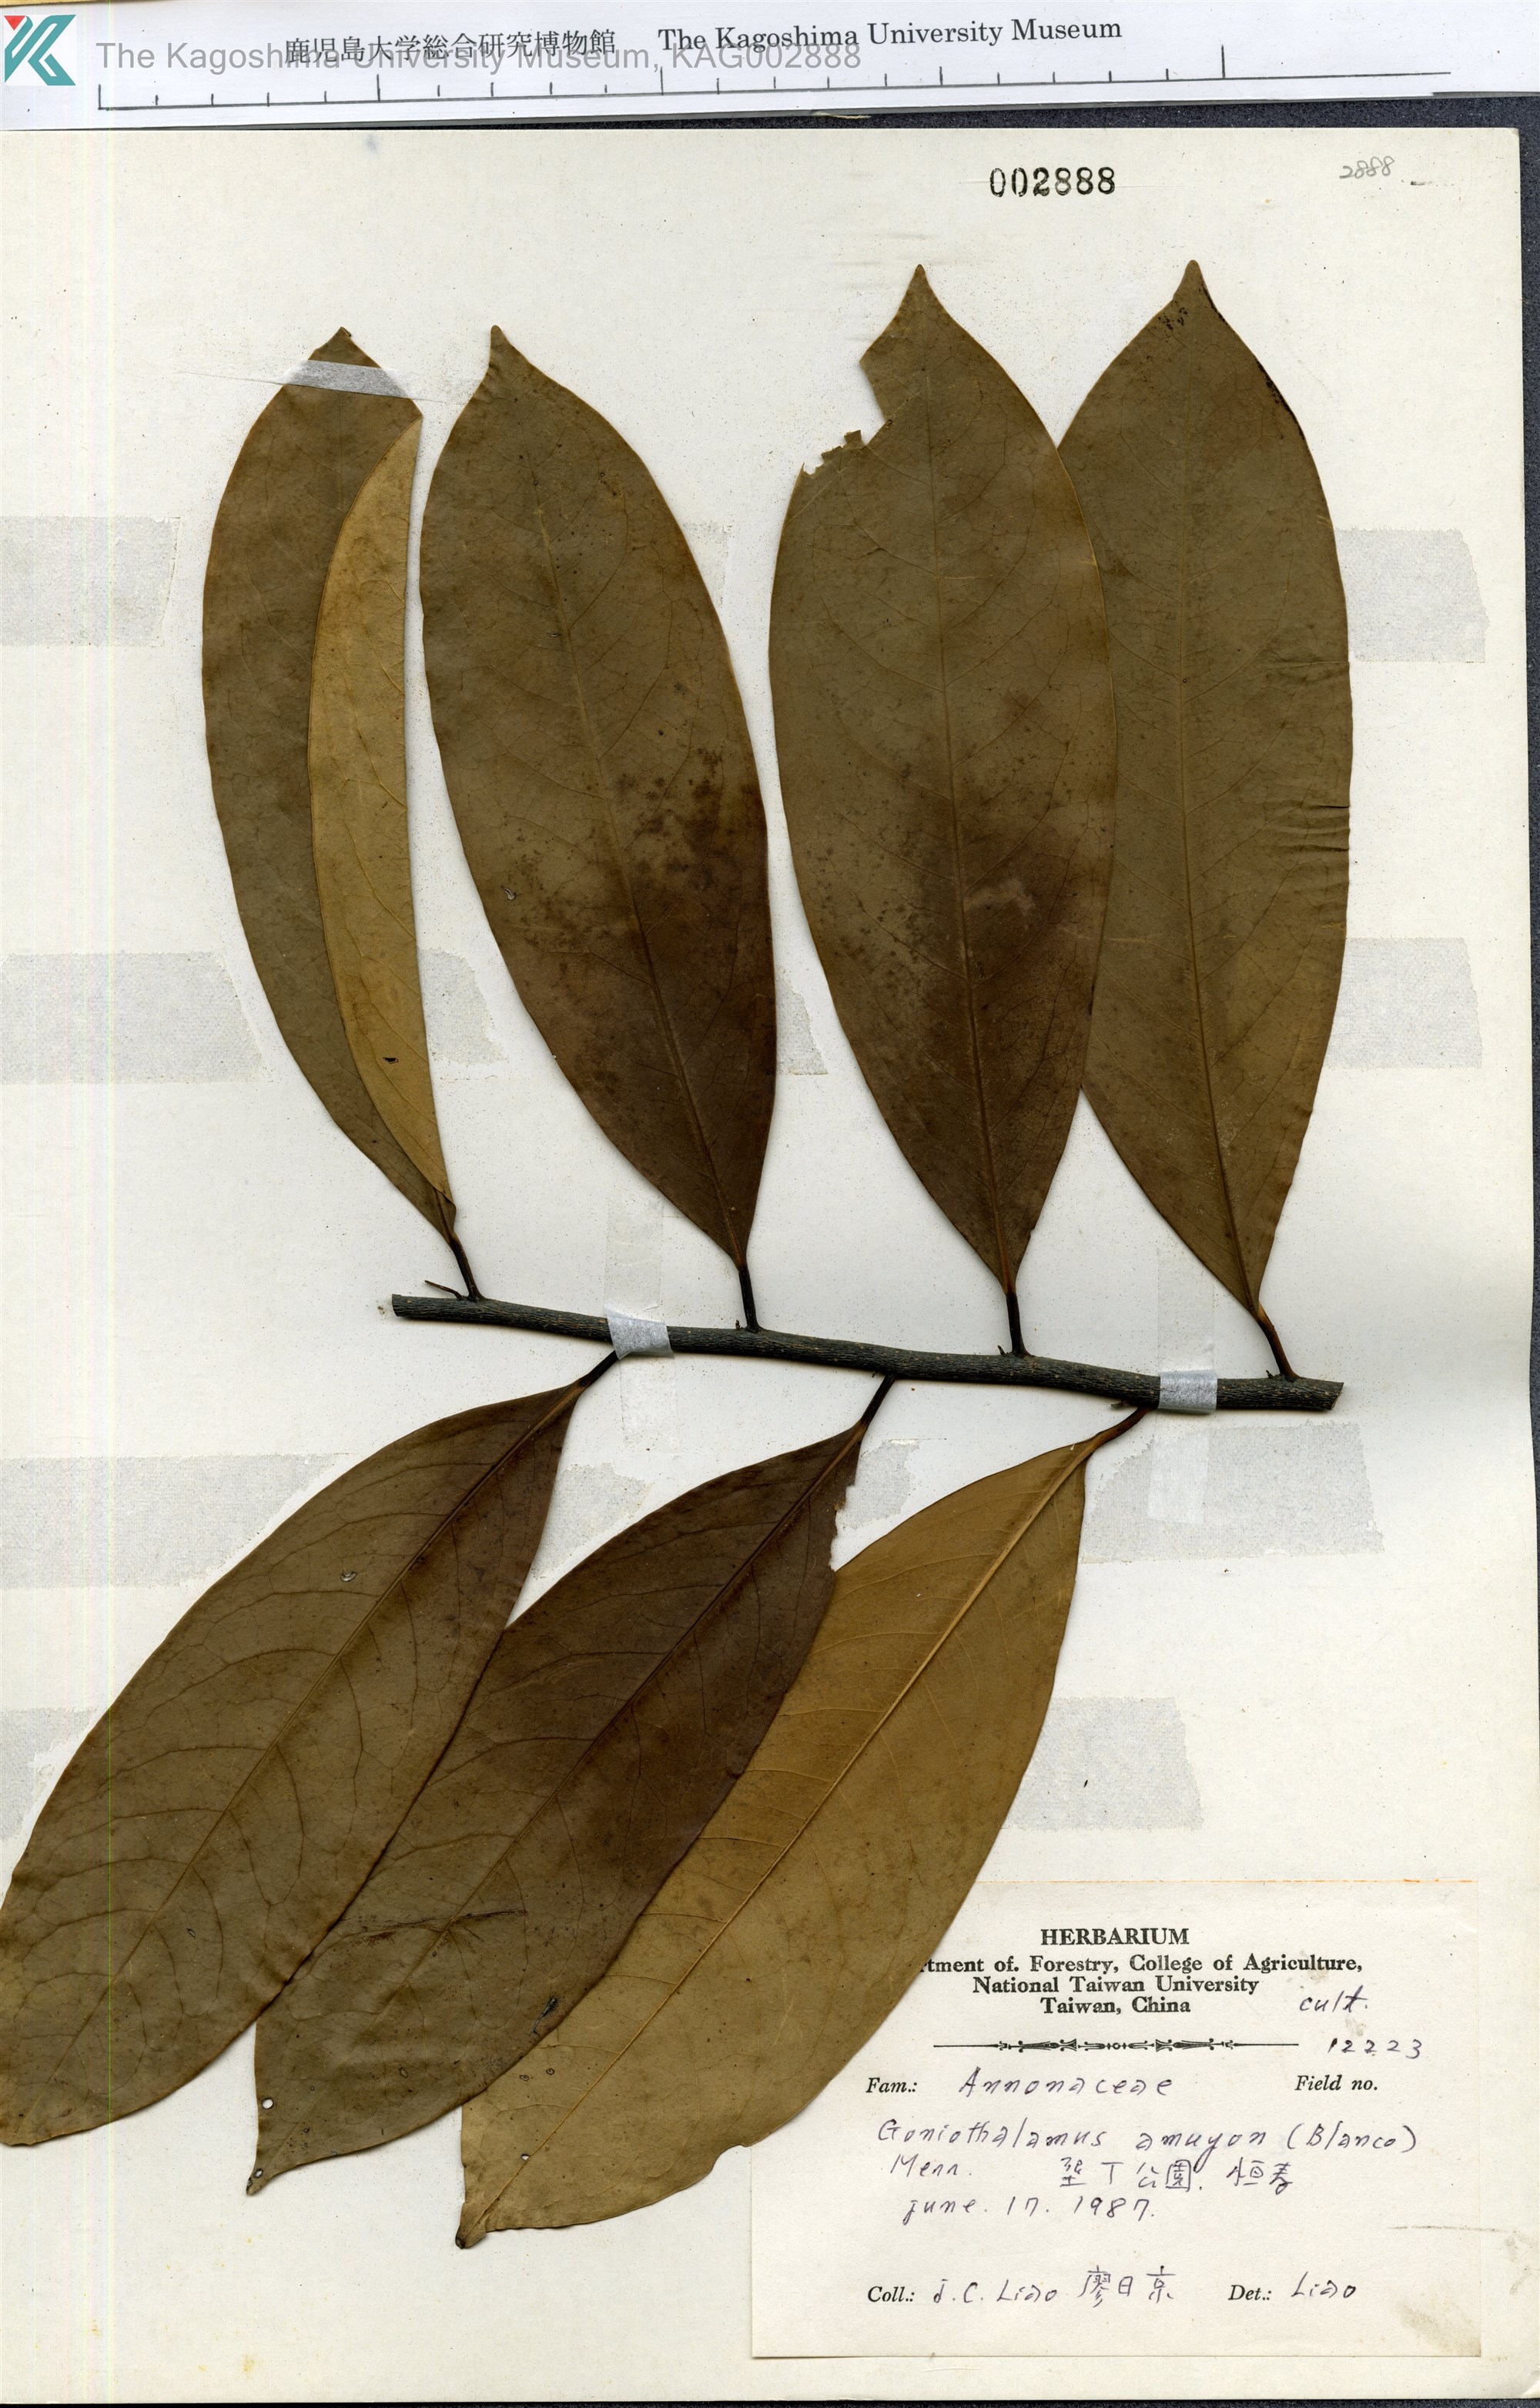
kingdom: Plantae
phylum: Tracheophyta
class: Magnoliopsida
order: Magnoliales
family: Annonaceae
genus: Goniothalamus
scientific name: Goniothalamus amuyon
